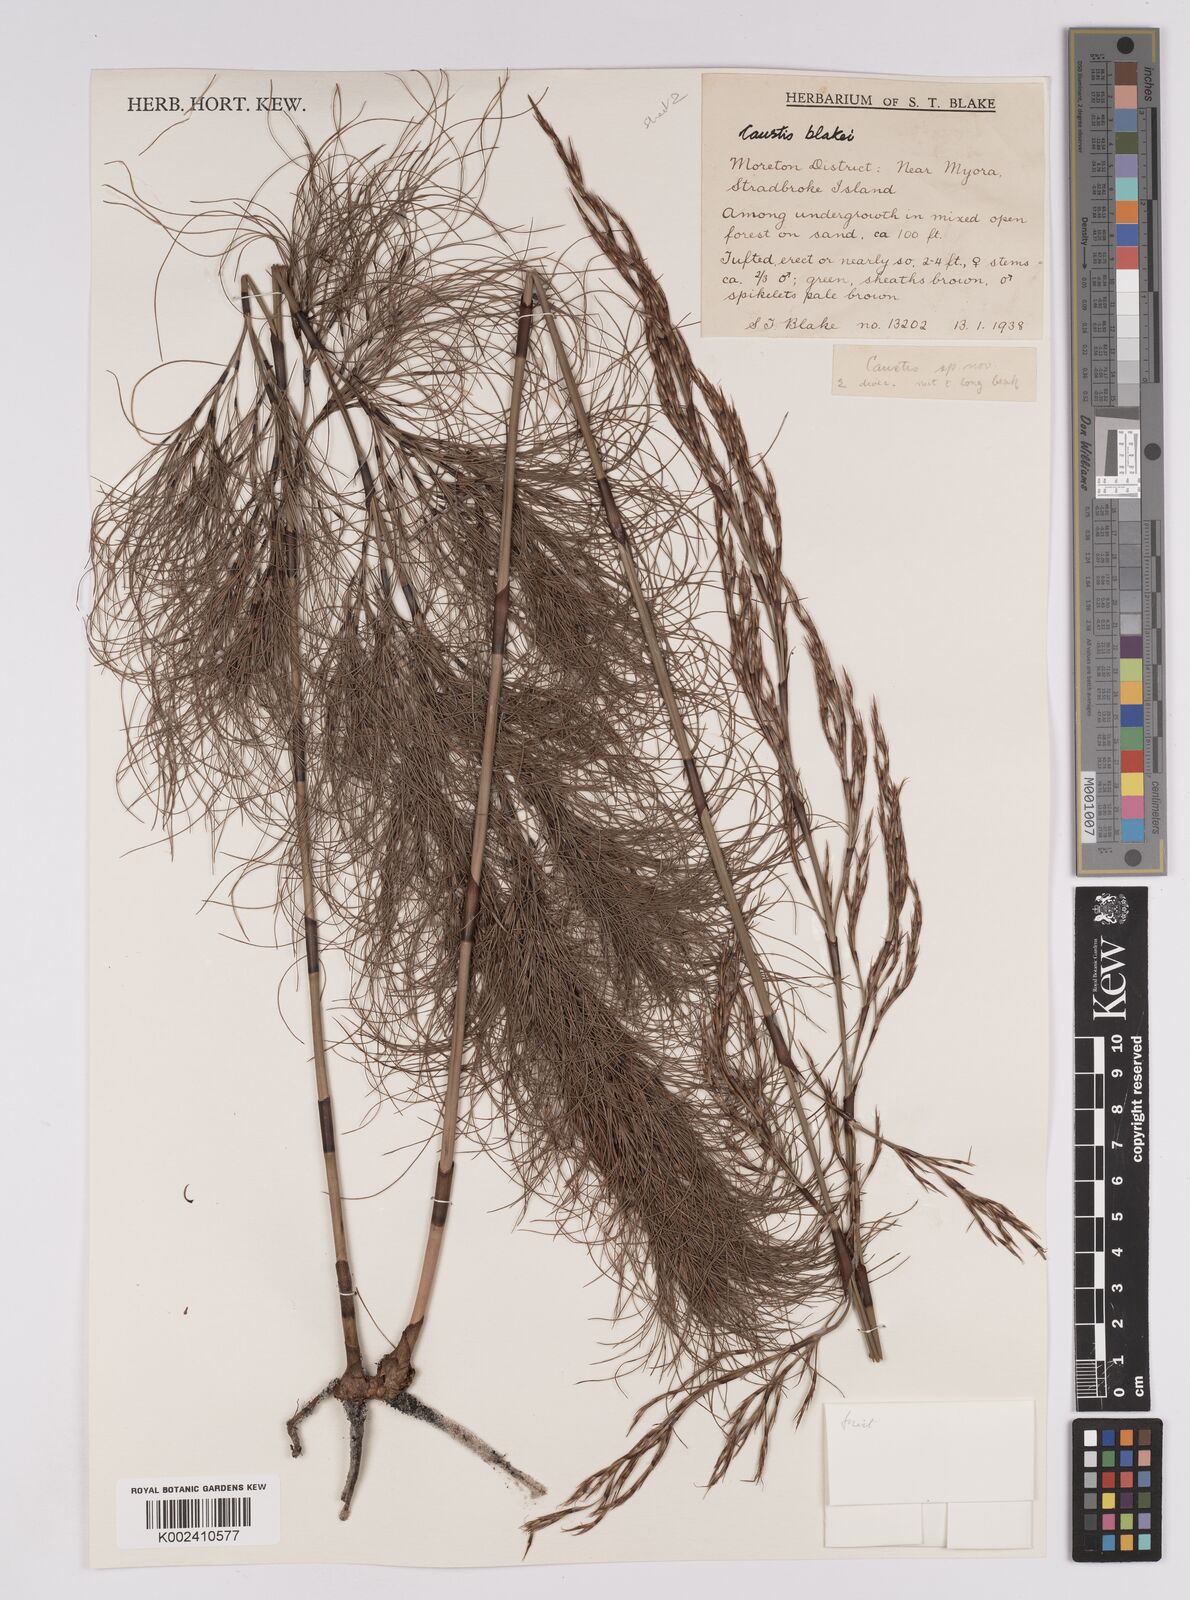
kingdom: Plantae
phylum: Tracheophyta
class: Liliopsida
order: Poales
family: Cyperaceae
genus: Caustis
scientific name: Caustis blakei
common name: Foxtail-fern
